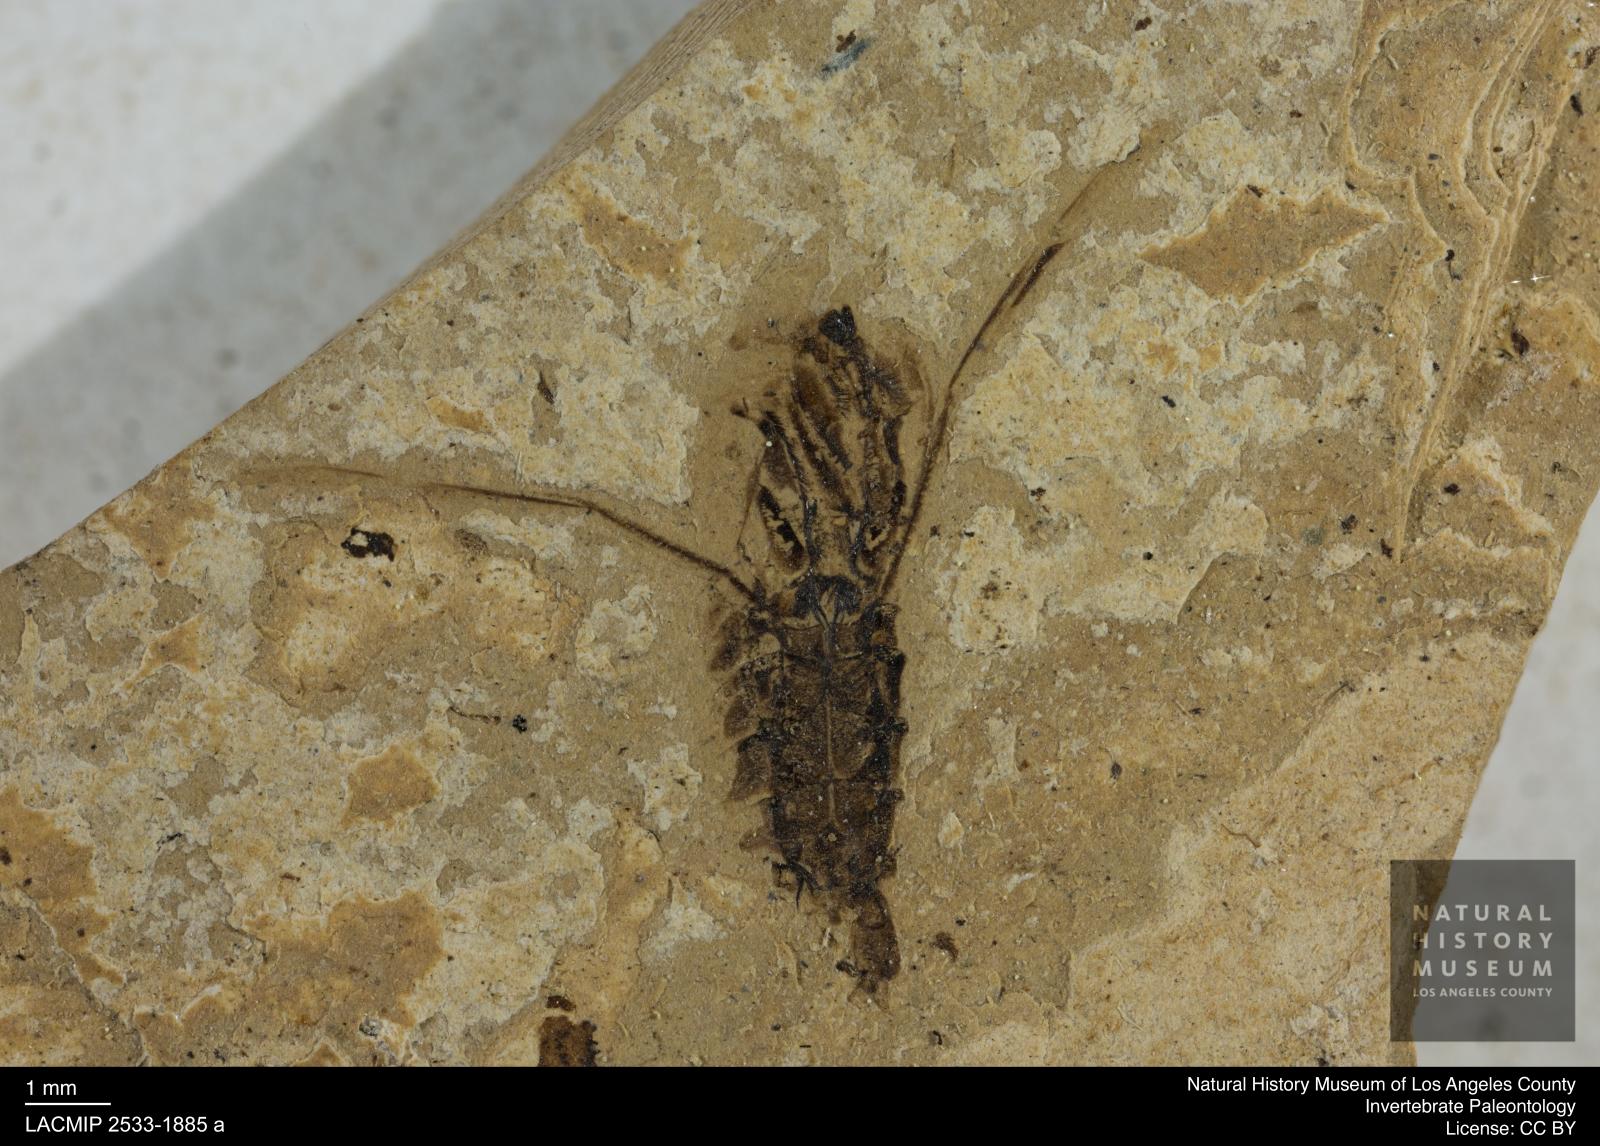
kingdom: Animalia
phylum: Arthropoda
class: Insecta
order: Hemiptera
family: Notonectidae
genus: Anisops
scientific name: Anisops Notonecta deichmuelleri
